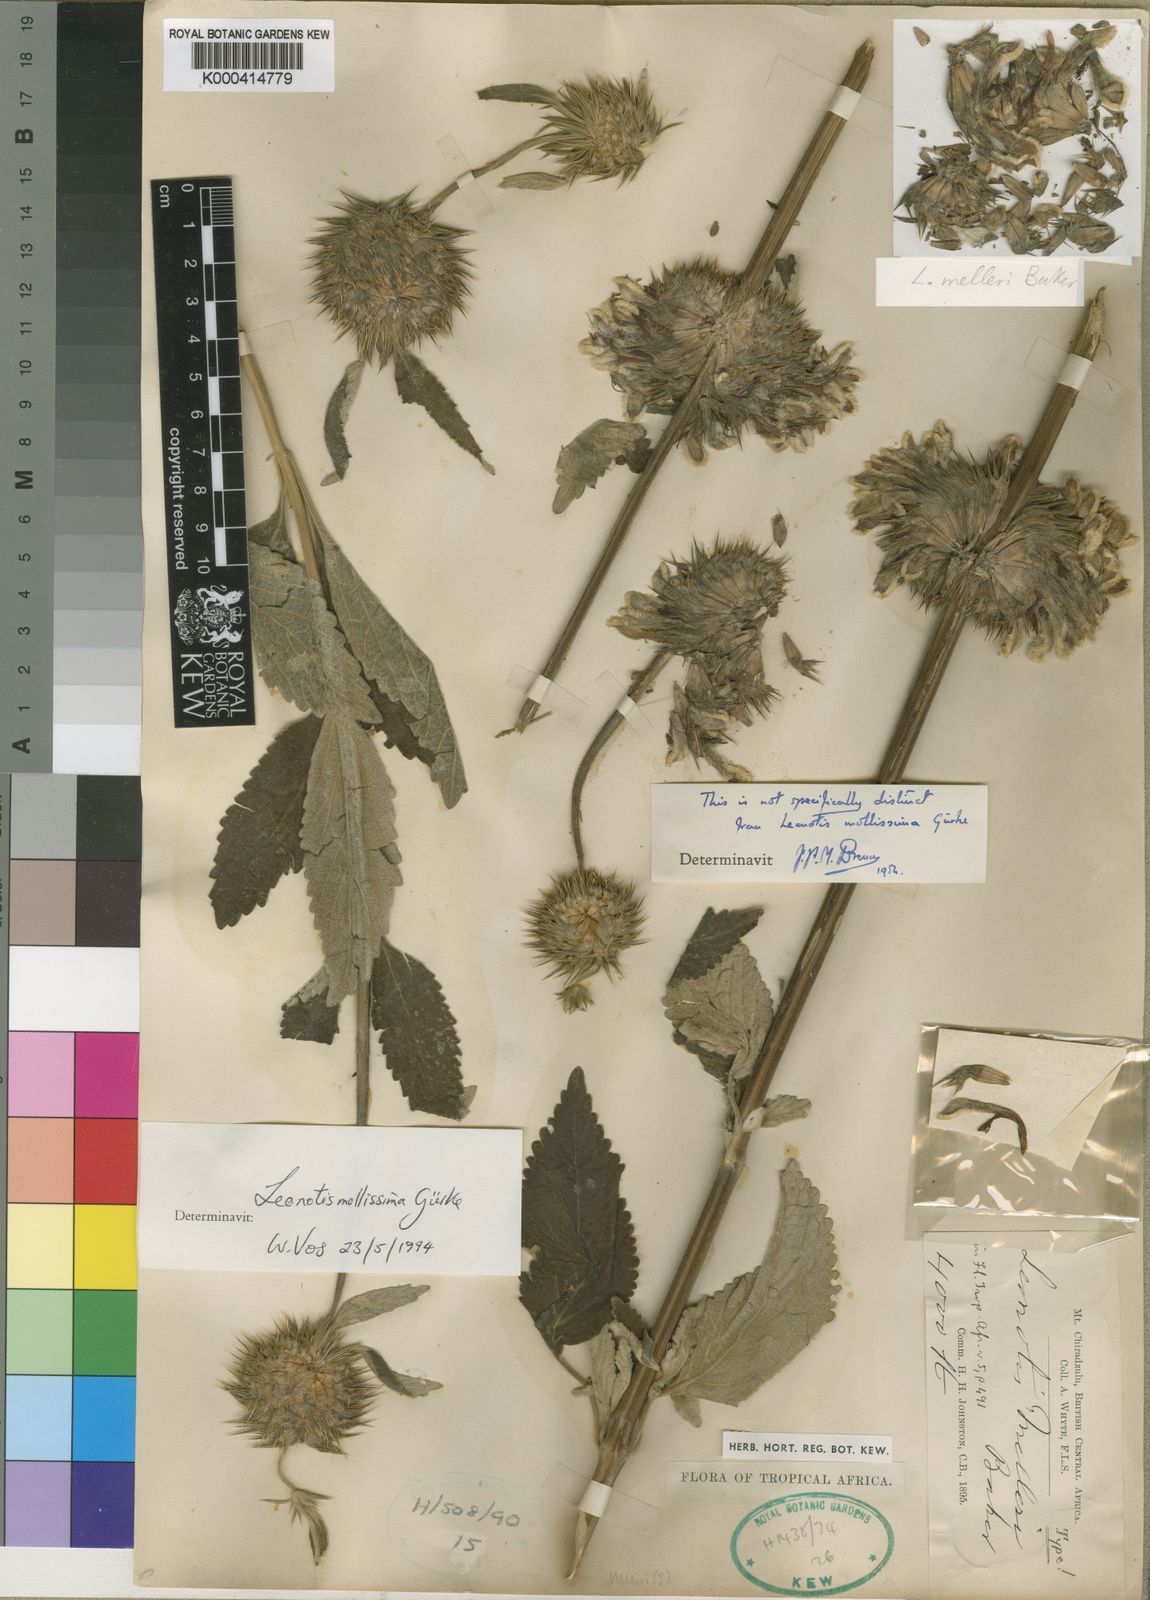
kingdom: Plantae
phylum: Tracheophyta
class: Magnoliopsida
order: Lamiales
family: Lamiaceae
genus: Leonotis
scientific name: Leonotis ocymifolia
